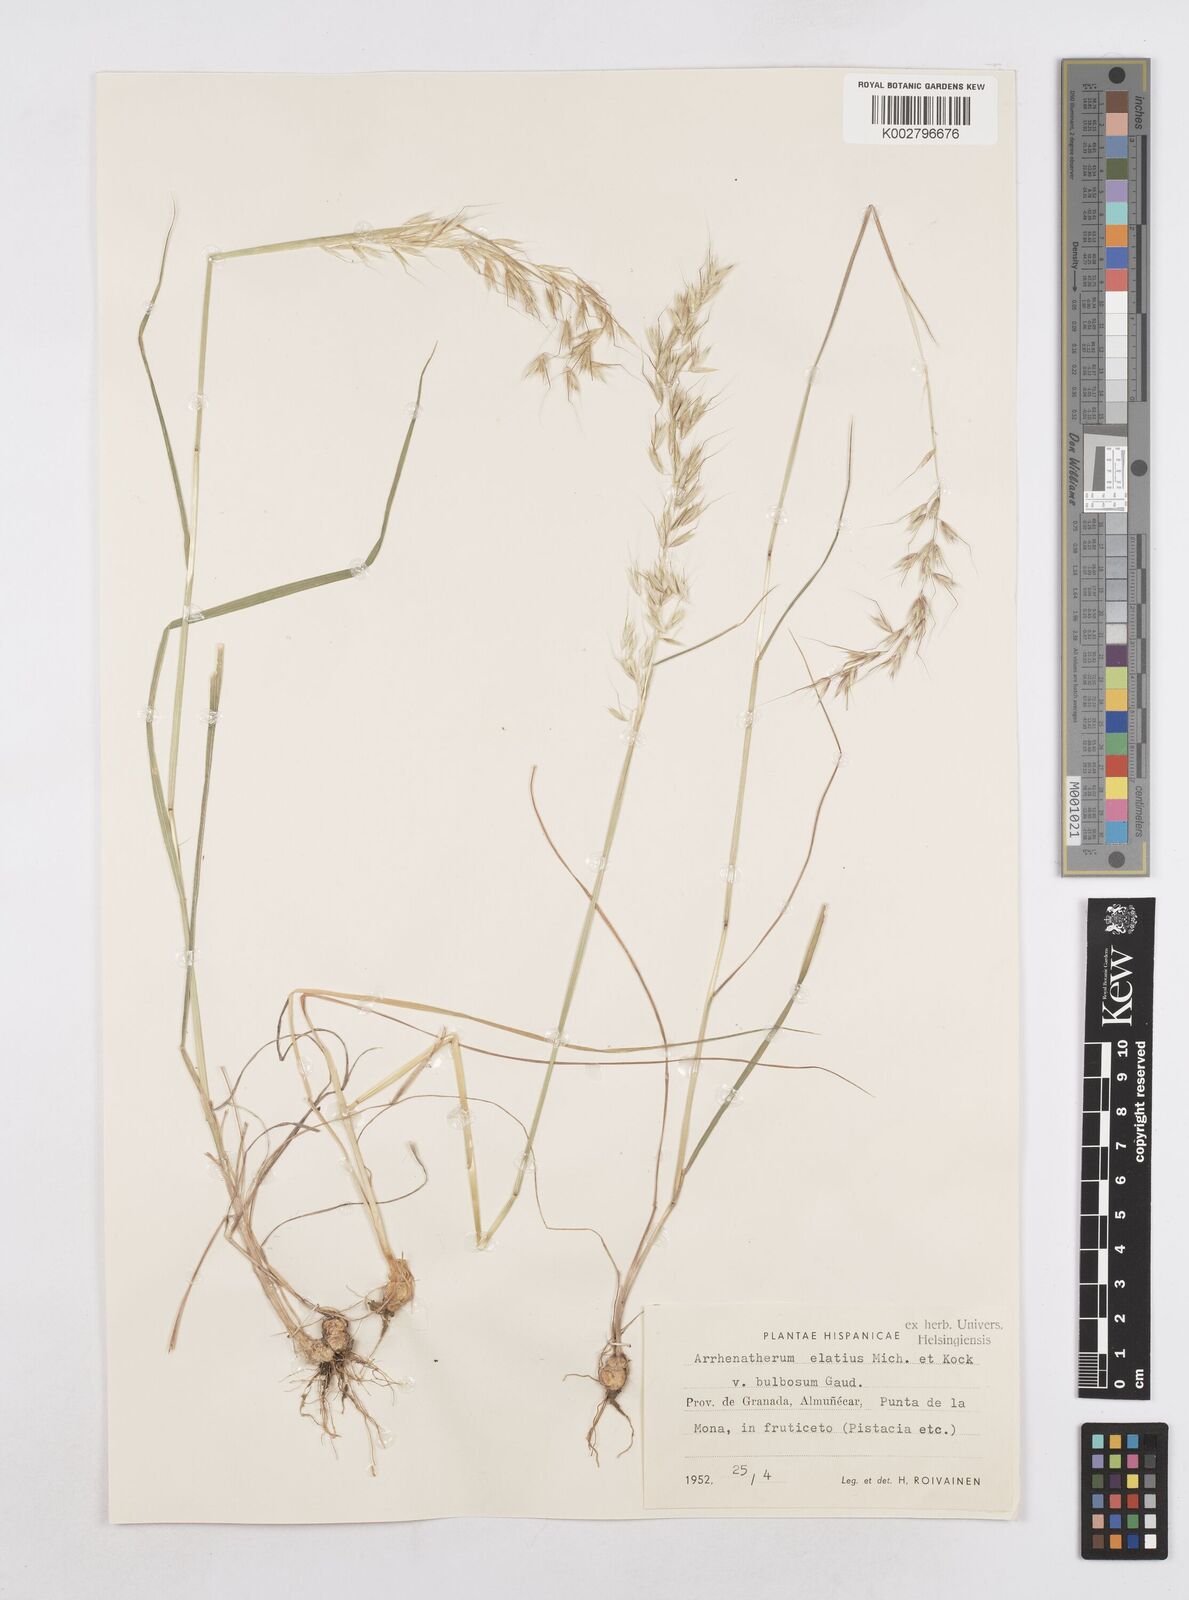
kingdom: Plantae
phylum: Tracheophyta
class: Liliopsida
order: Poales
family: Poaceae
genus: Arrhenatherum
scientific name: Arrhenatherum elatius
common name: Tall oatgrass
